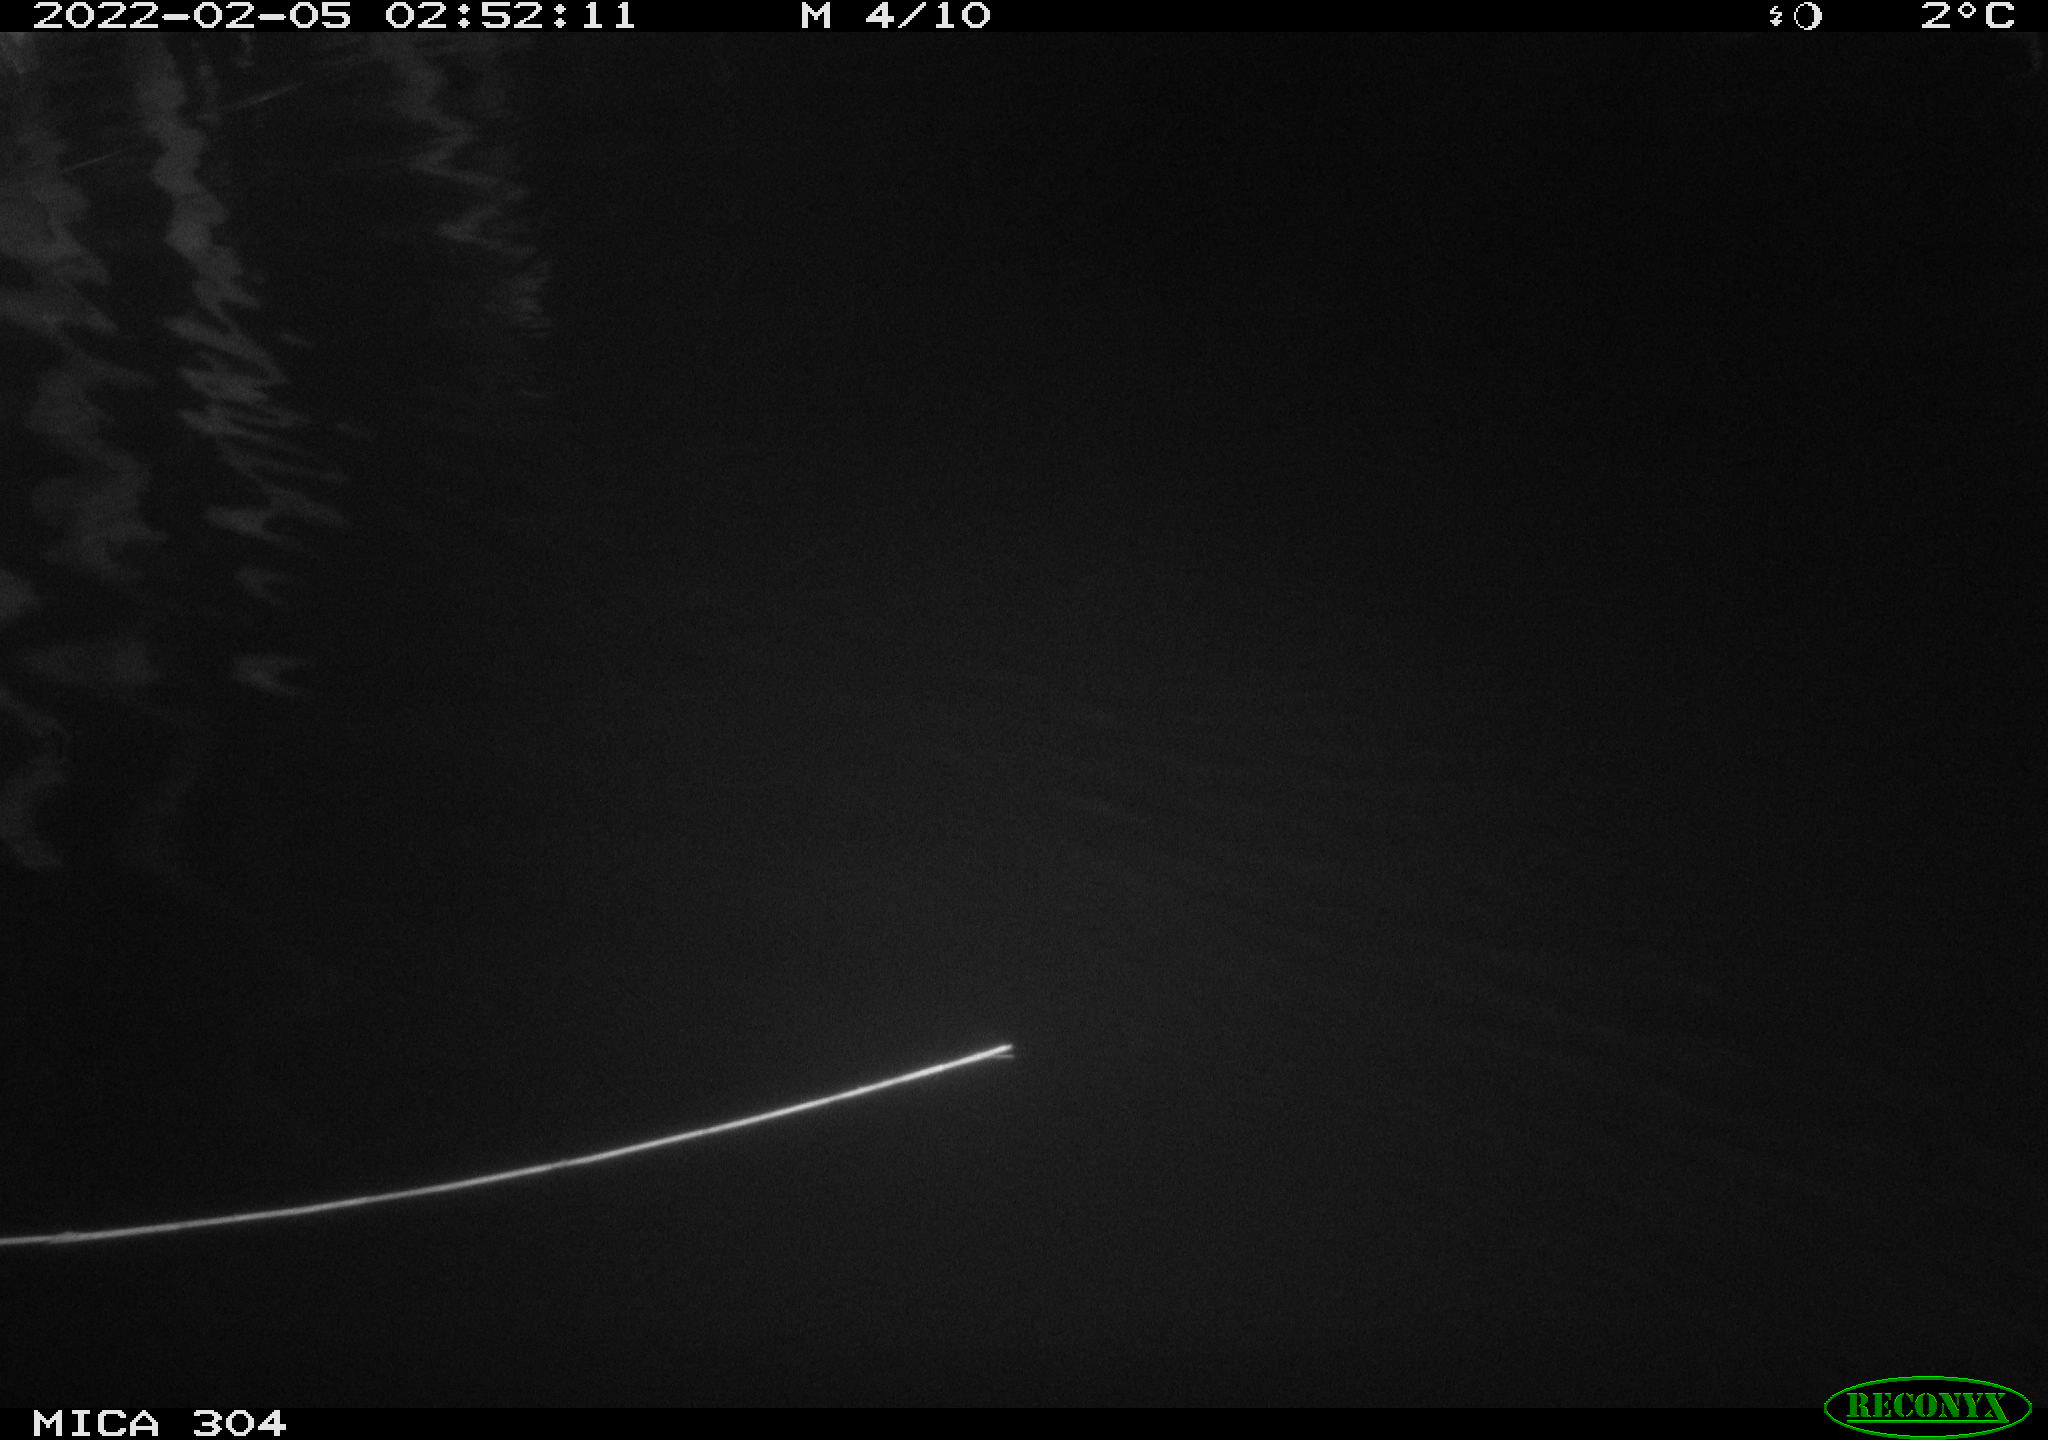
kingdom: Animalia
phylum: Chordata
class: Aves
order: Anseriformes
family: Anatidae
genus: Anas
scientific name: Anas platyrhynchos
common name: Mallard
